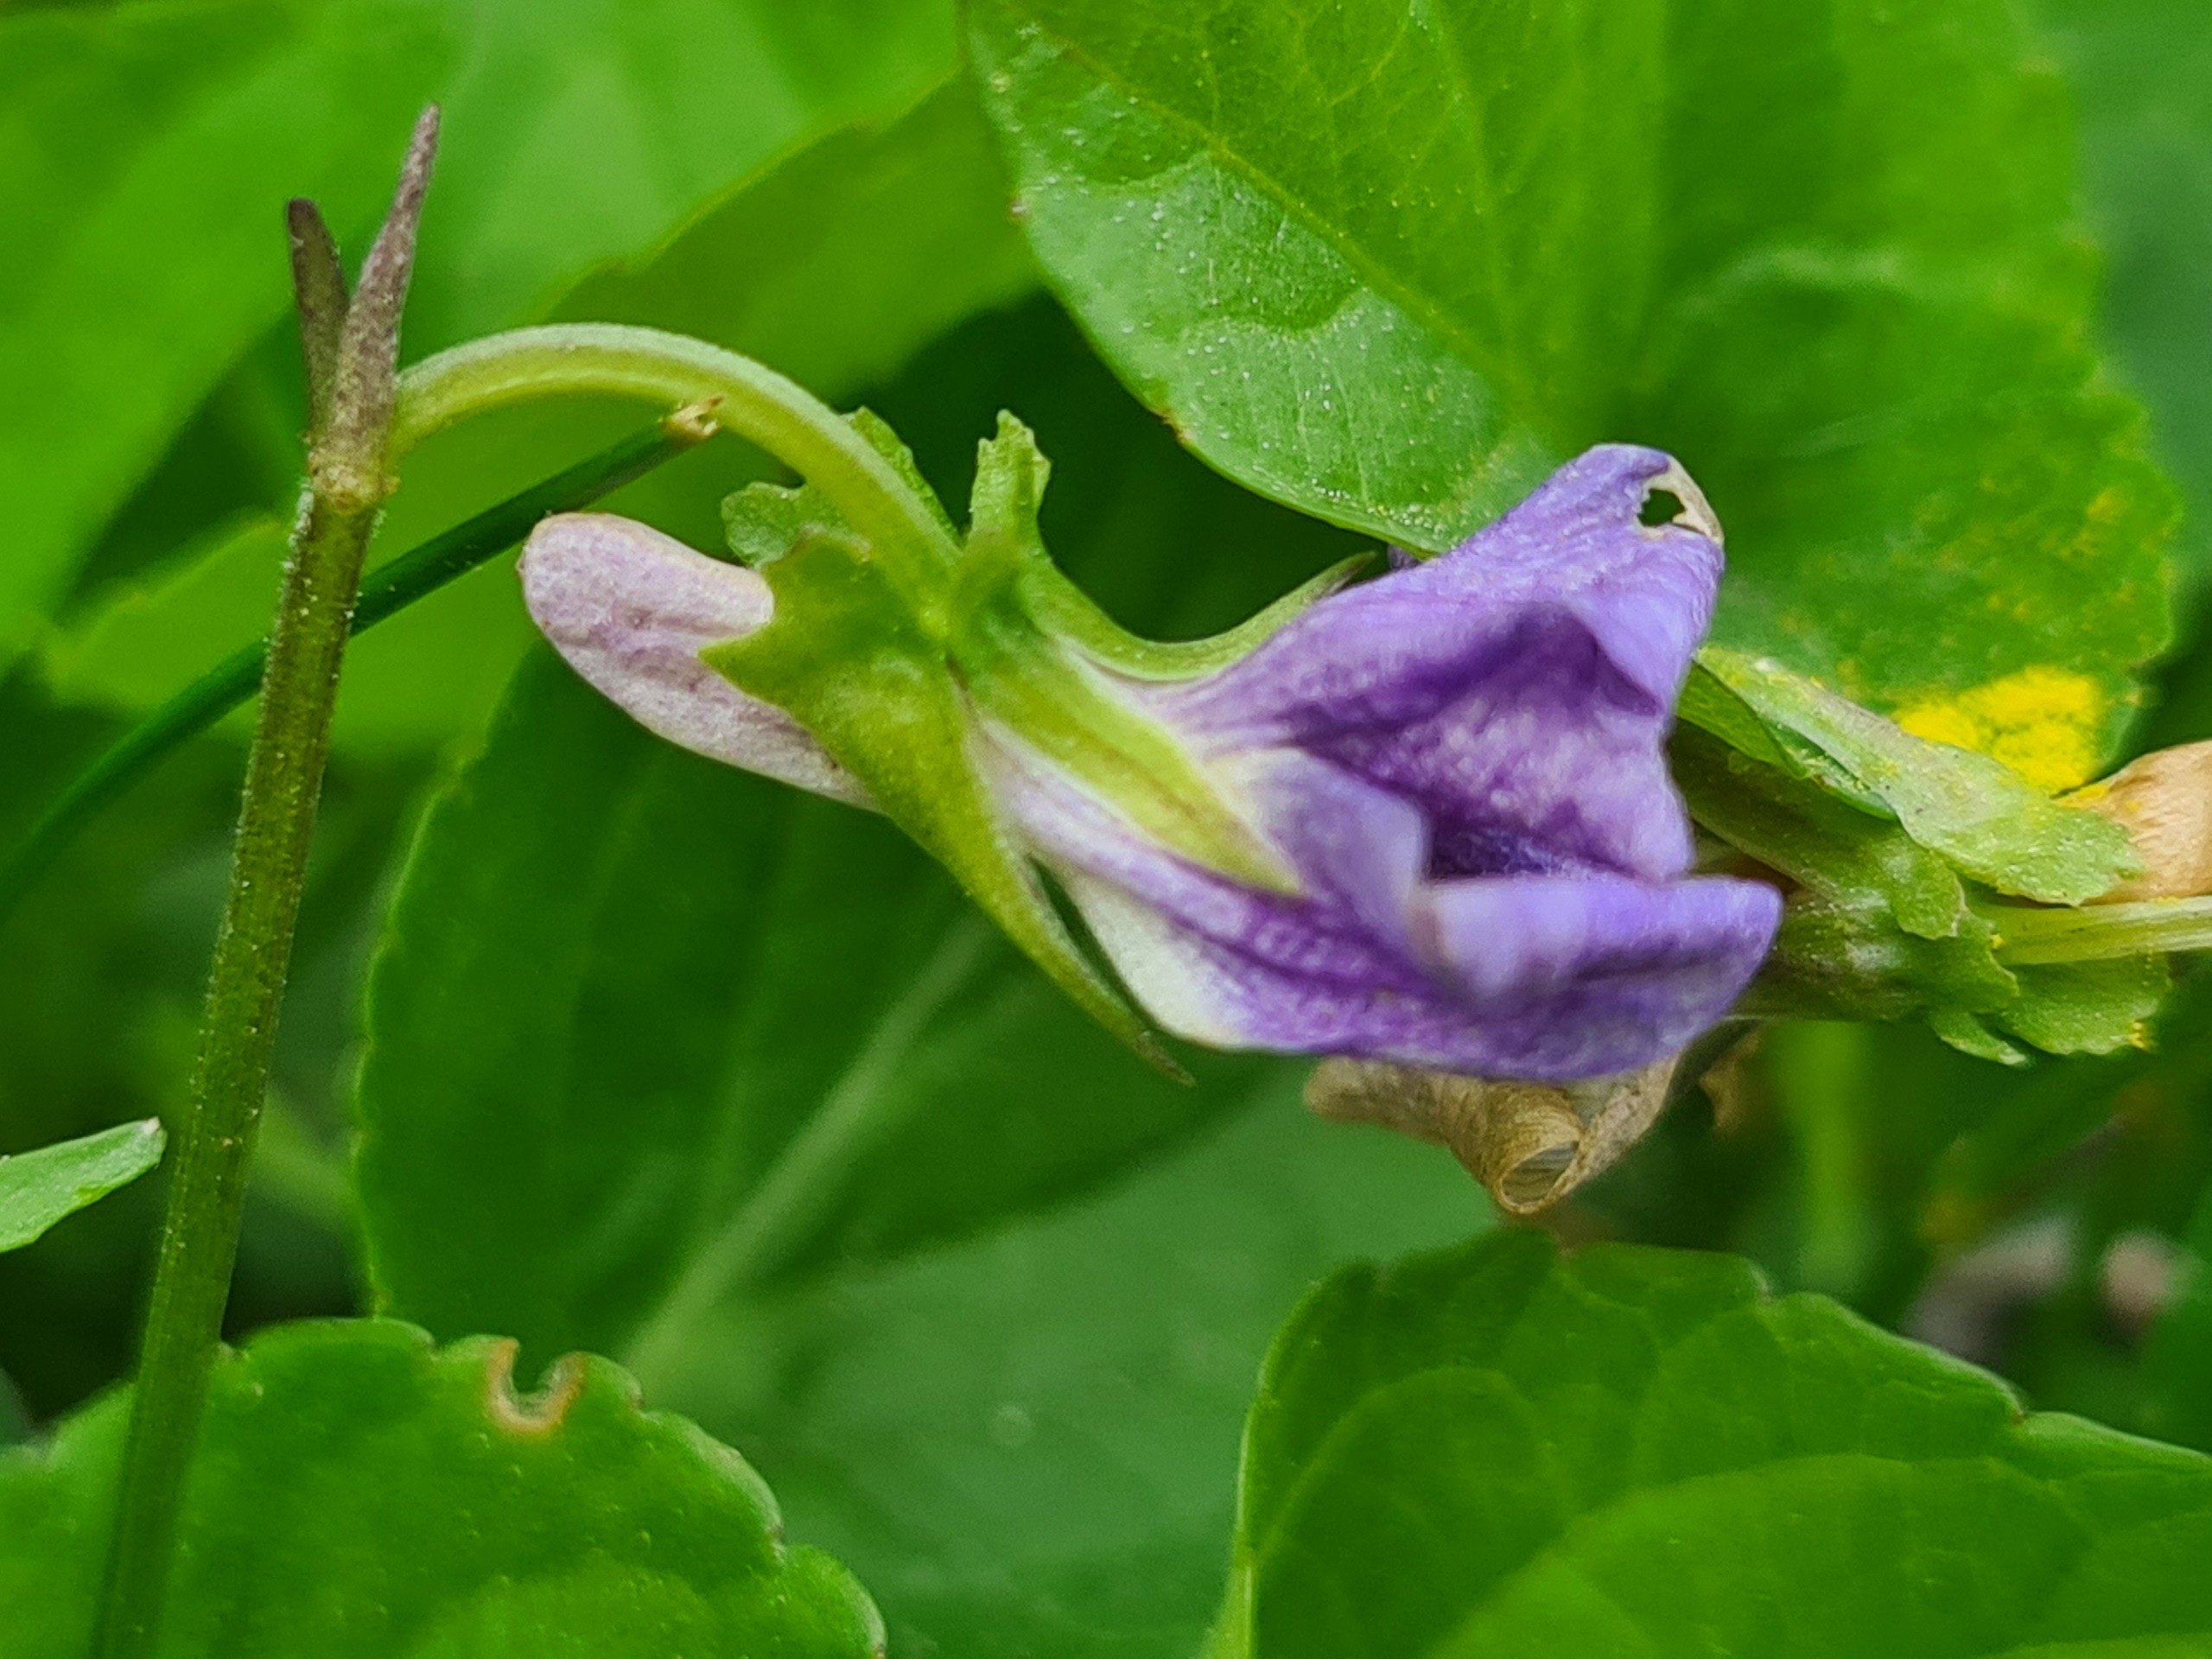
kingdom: Plantae
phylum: Tracheophyta
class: Magnoliopsida
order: Malpighiales
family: Violaceae
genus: Viola
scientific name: Viola riviniana
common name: Krat-viol
